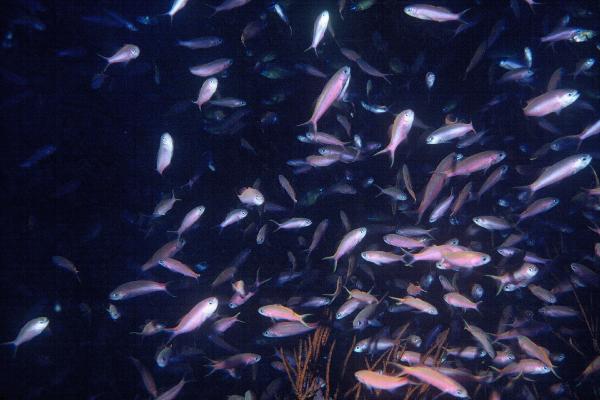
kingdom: Animalia
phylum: Chordata
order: Perciformes
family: Serranidae
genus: Luzonichthys
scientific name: Luzonichthys waitei
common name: Waite's splitfin
